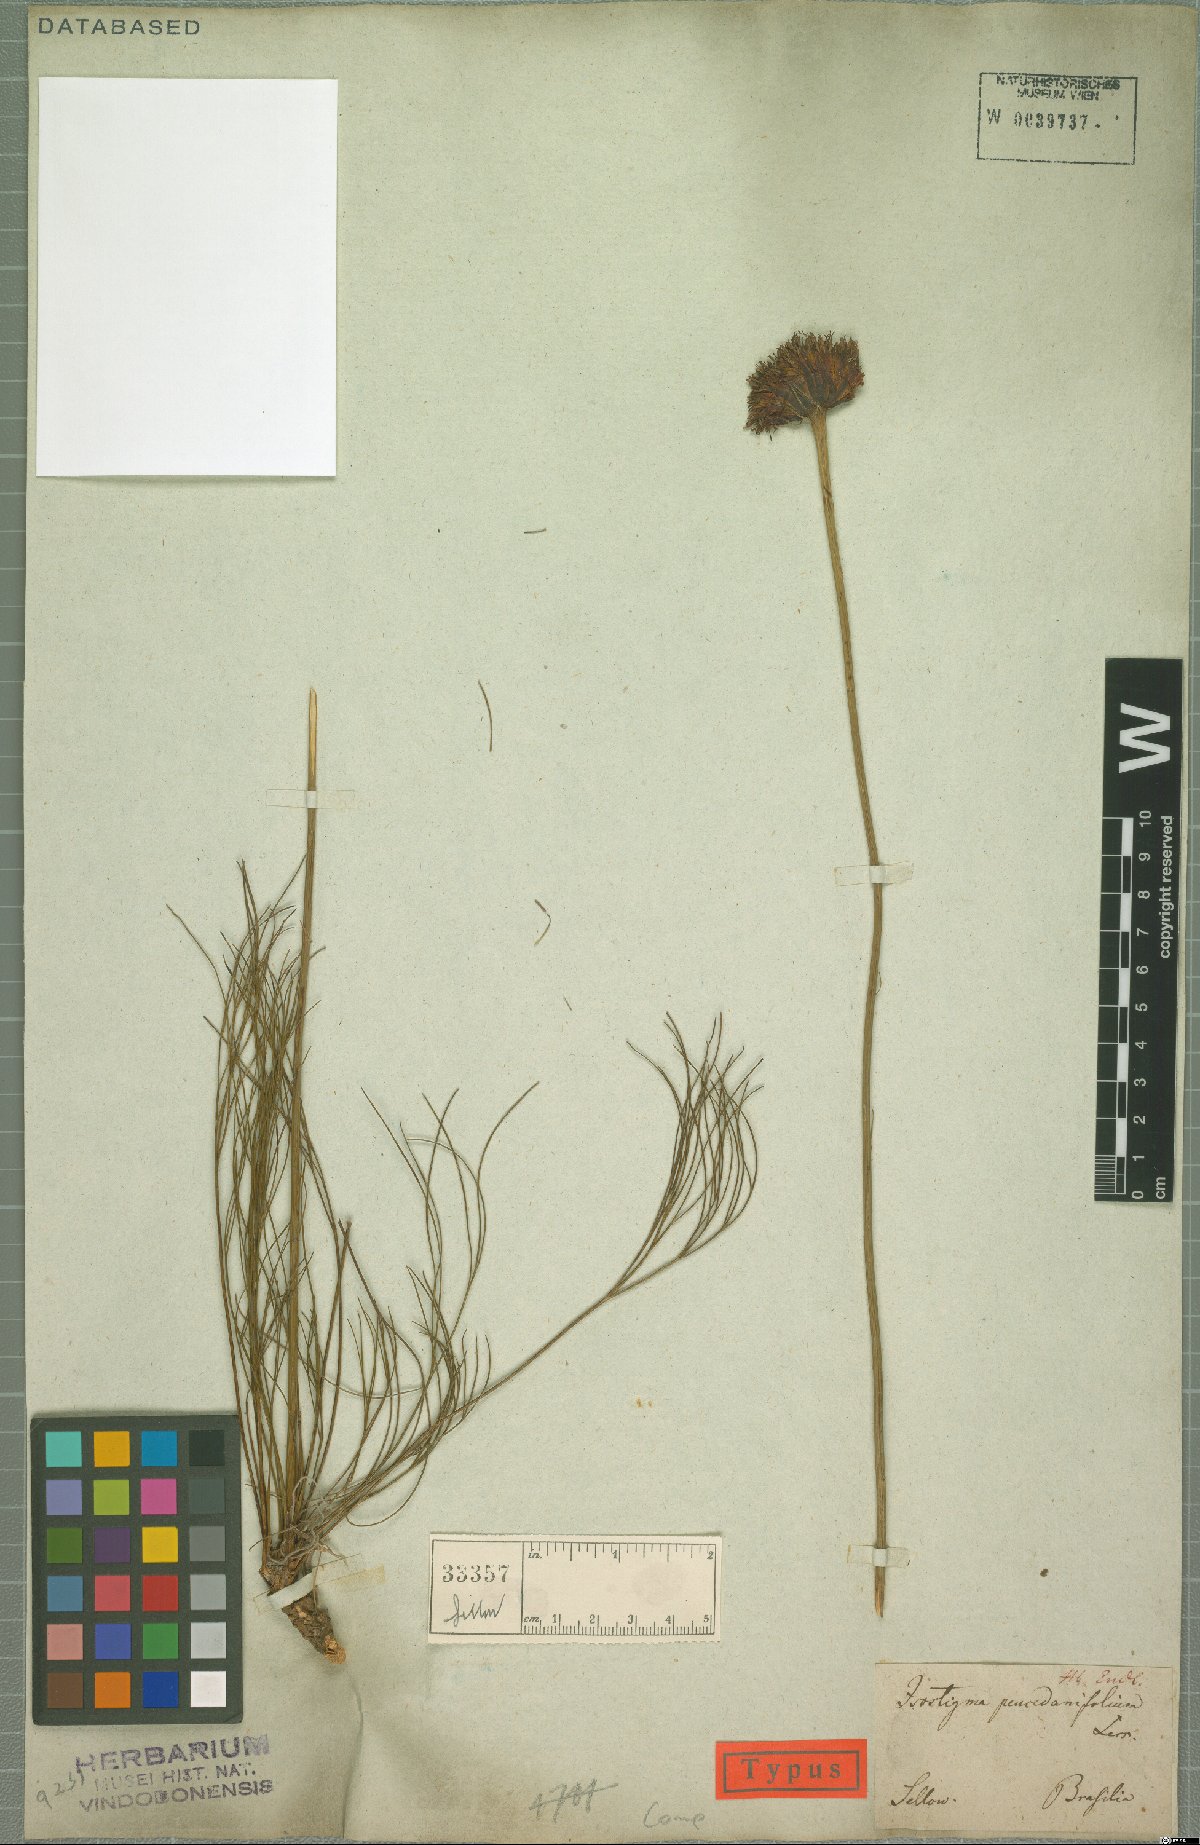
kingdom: Plantae
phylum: Tracheophyta
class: Magnoliopsida
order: Asterales
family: Asteraceae
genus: Isostigma
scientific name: Isostigma peucedanifolium
